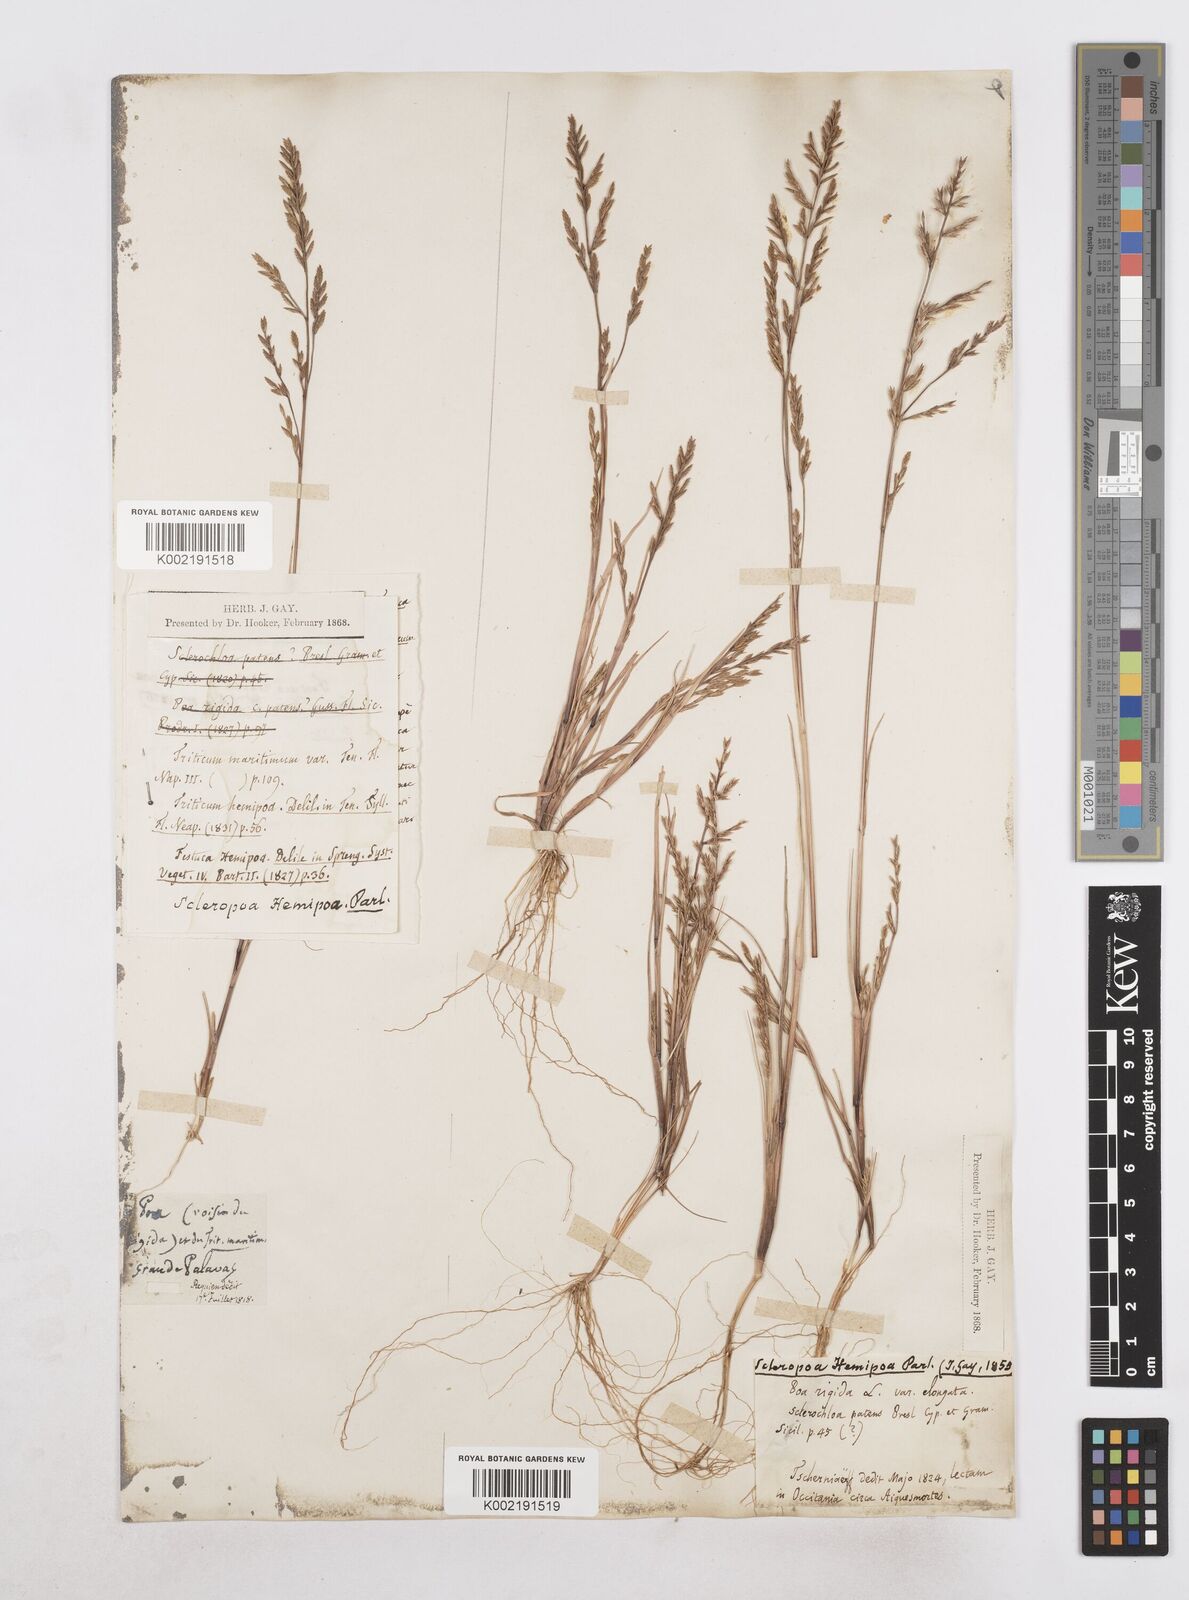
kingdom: Plantae
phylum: Tracheophyta
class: Liliopsida
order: Poales
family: Poaceae
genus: Catapodium
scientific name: Catapodium hemipoa
